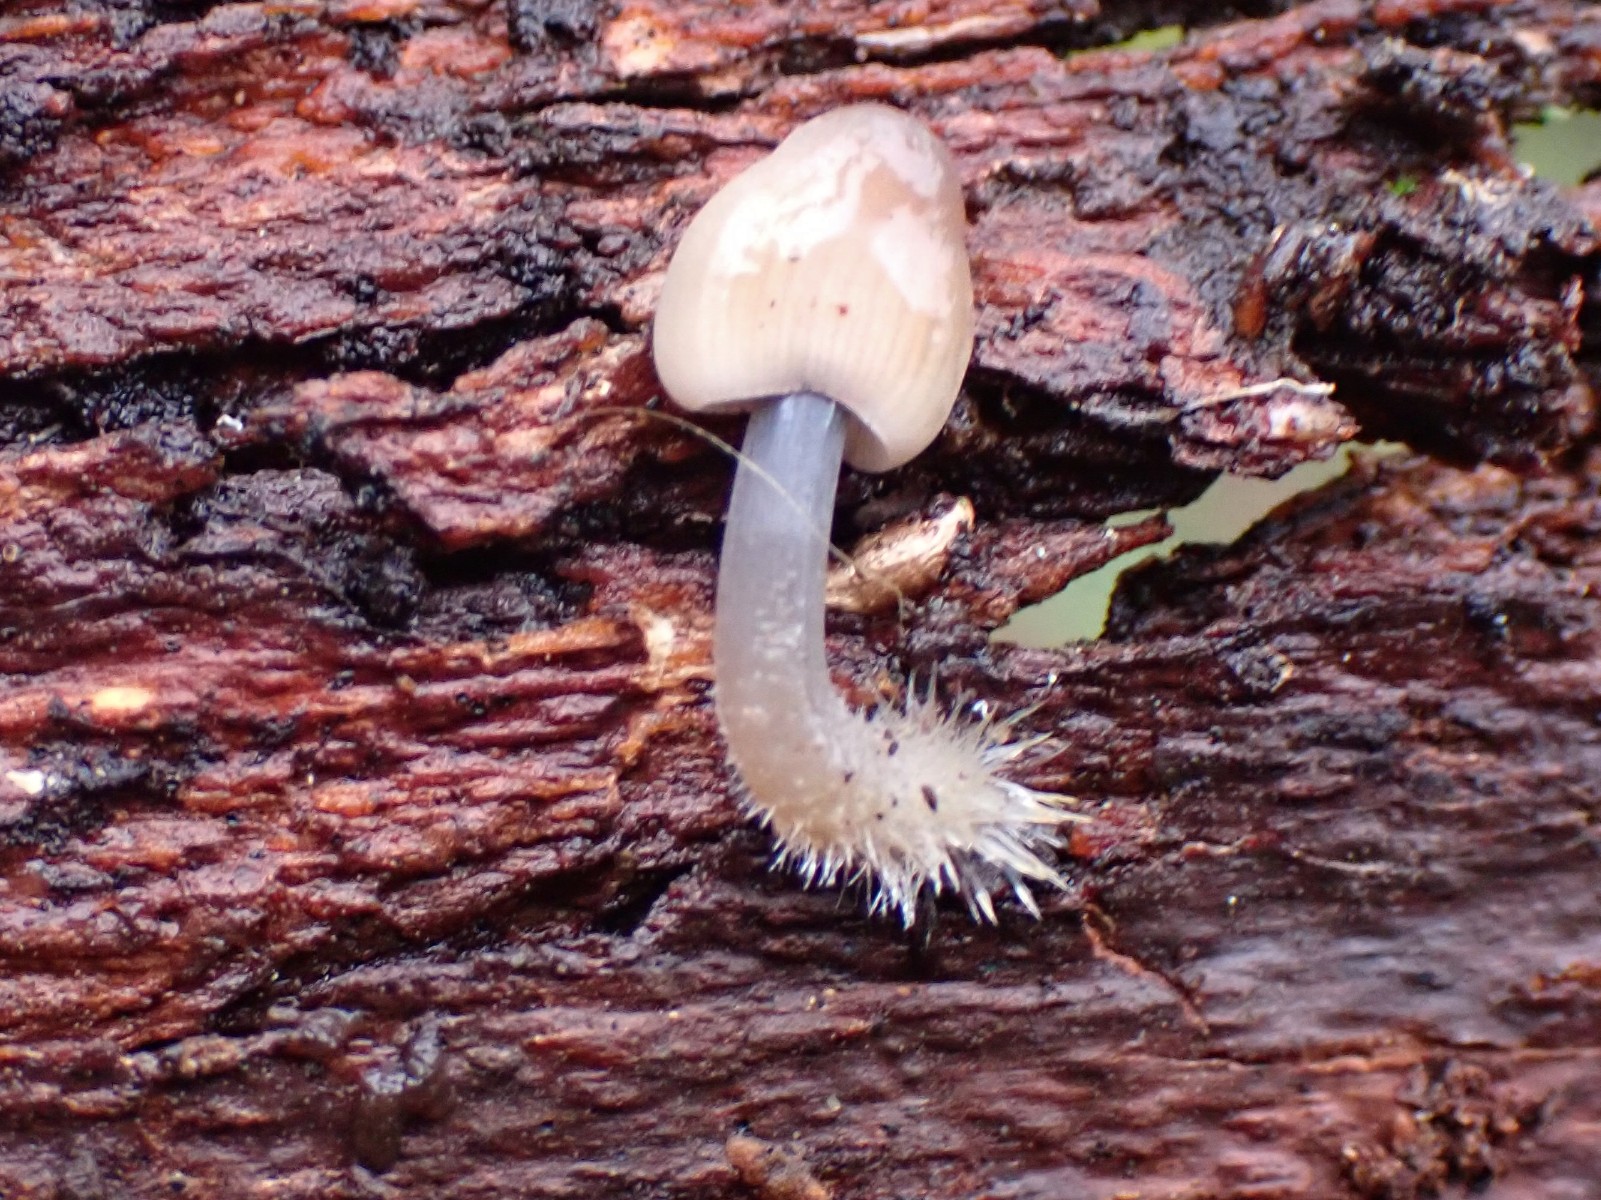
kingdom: Fungi
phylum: Basidiomycota
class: Agaricomycetes
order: Agaricales
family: Mycenaceae
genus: Mycena
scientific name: Mycena
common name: huesvamp
